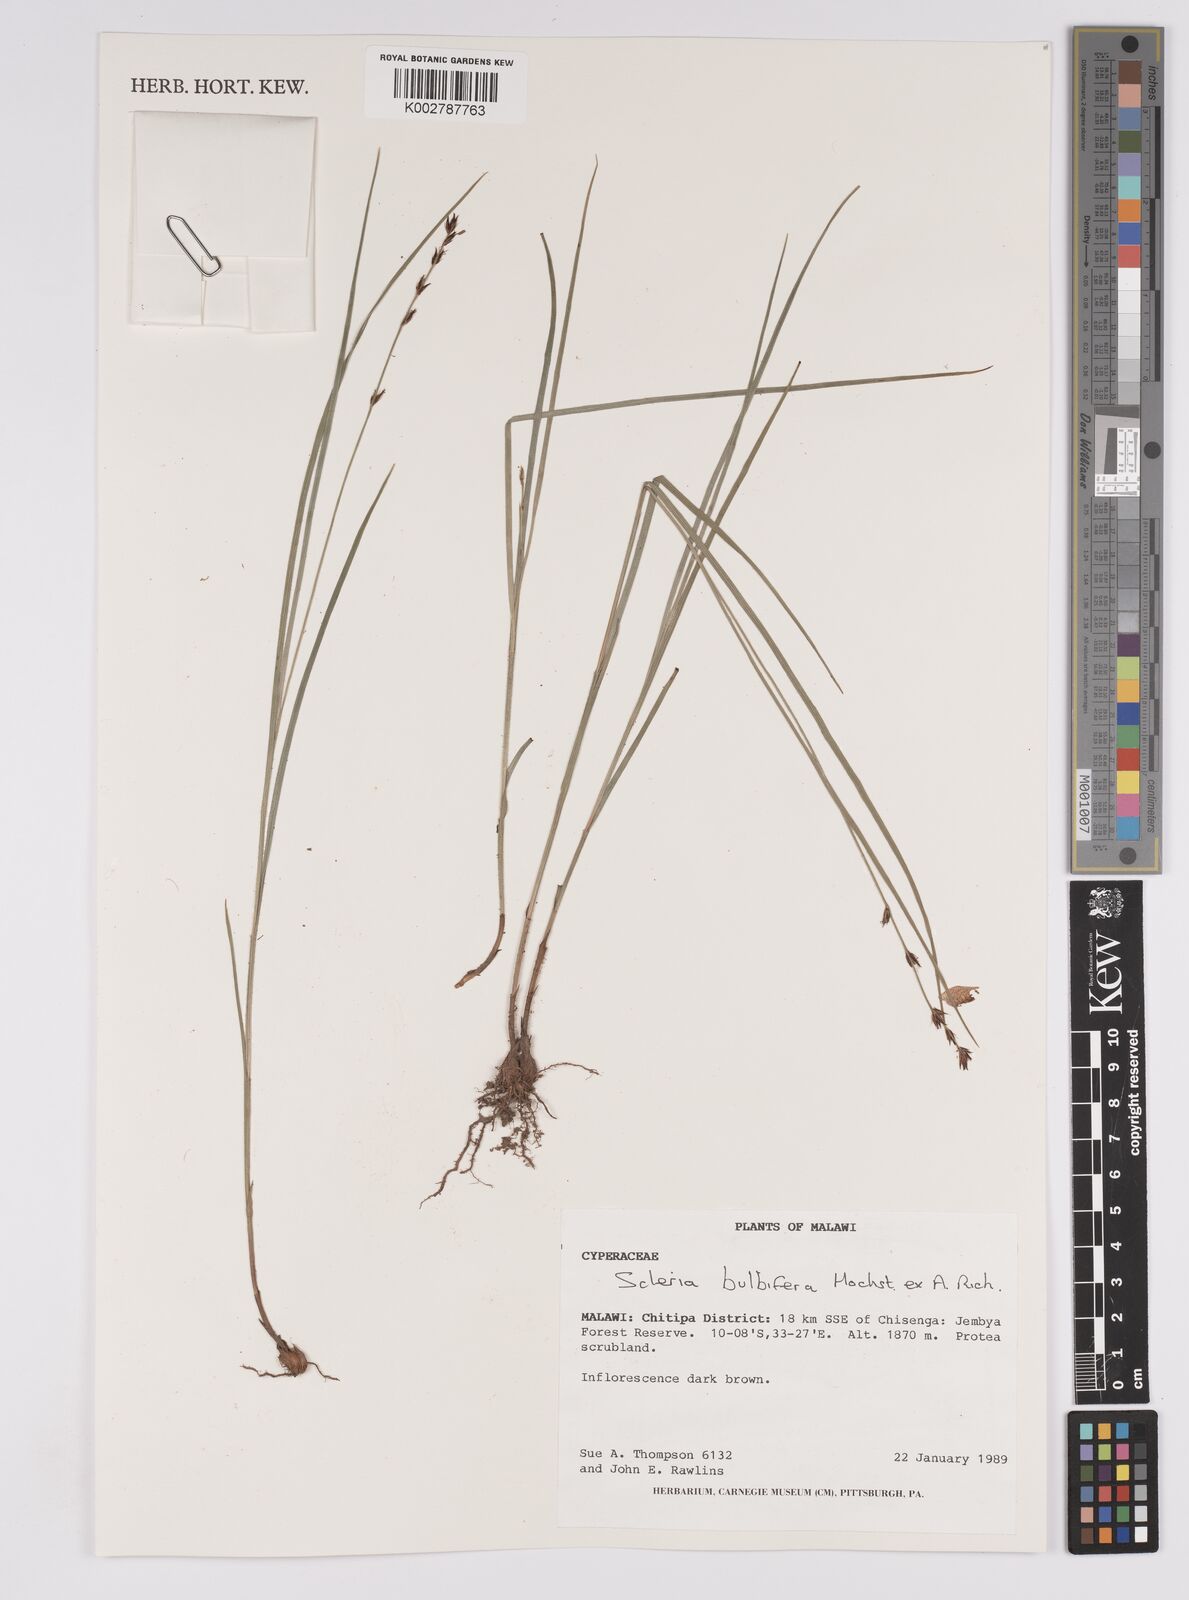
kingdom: Plantae
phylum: Tracheophyta
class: Liliopsida
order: Poales
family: Cyperaceae
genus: Scleria
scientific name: Scleria bulbifera
